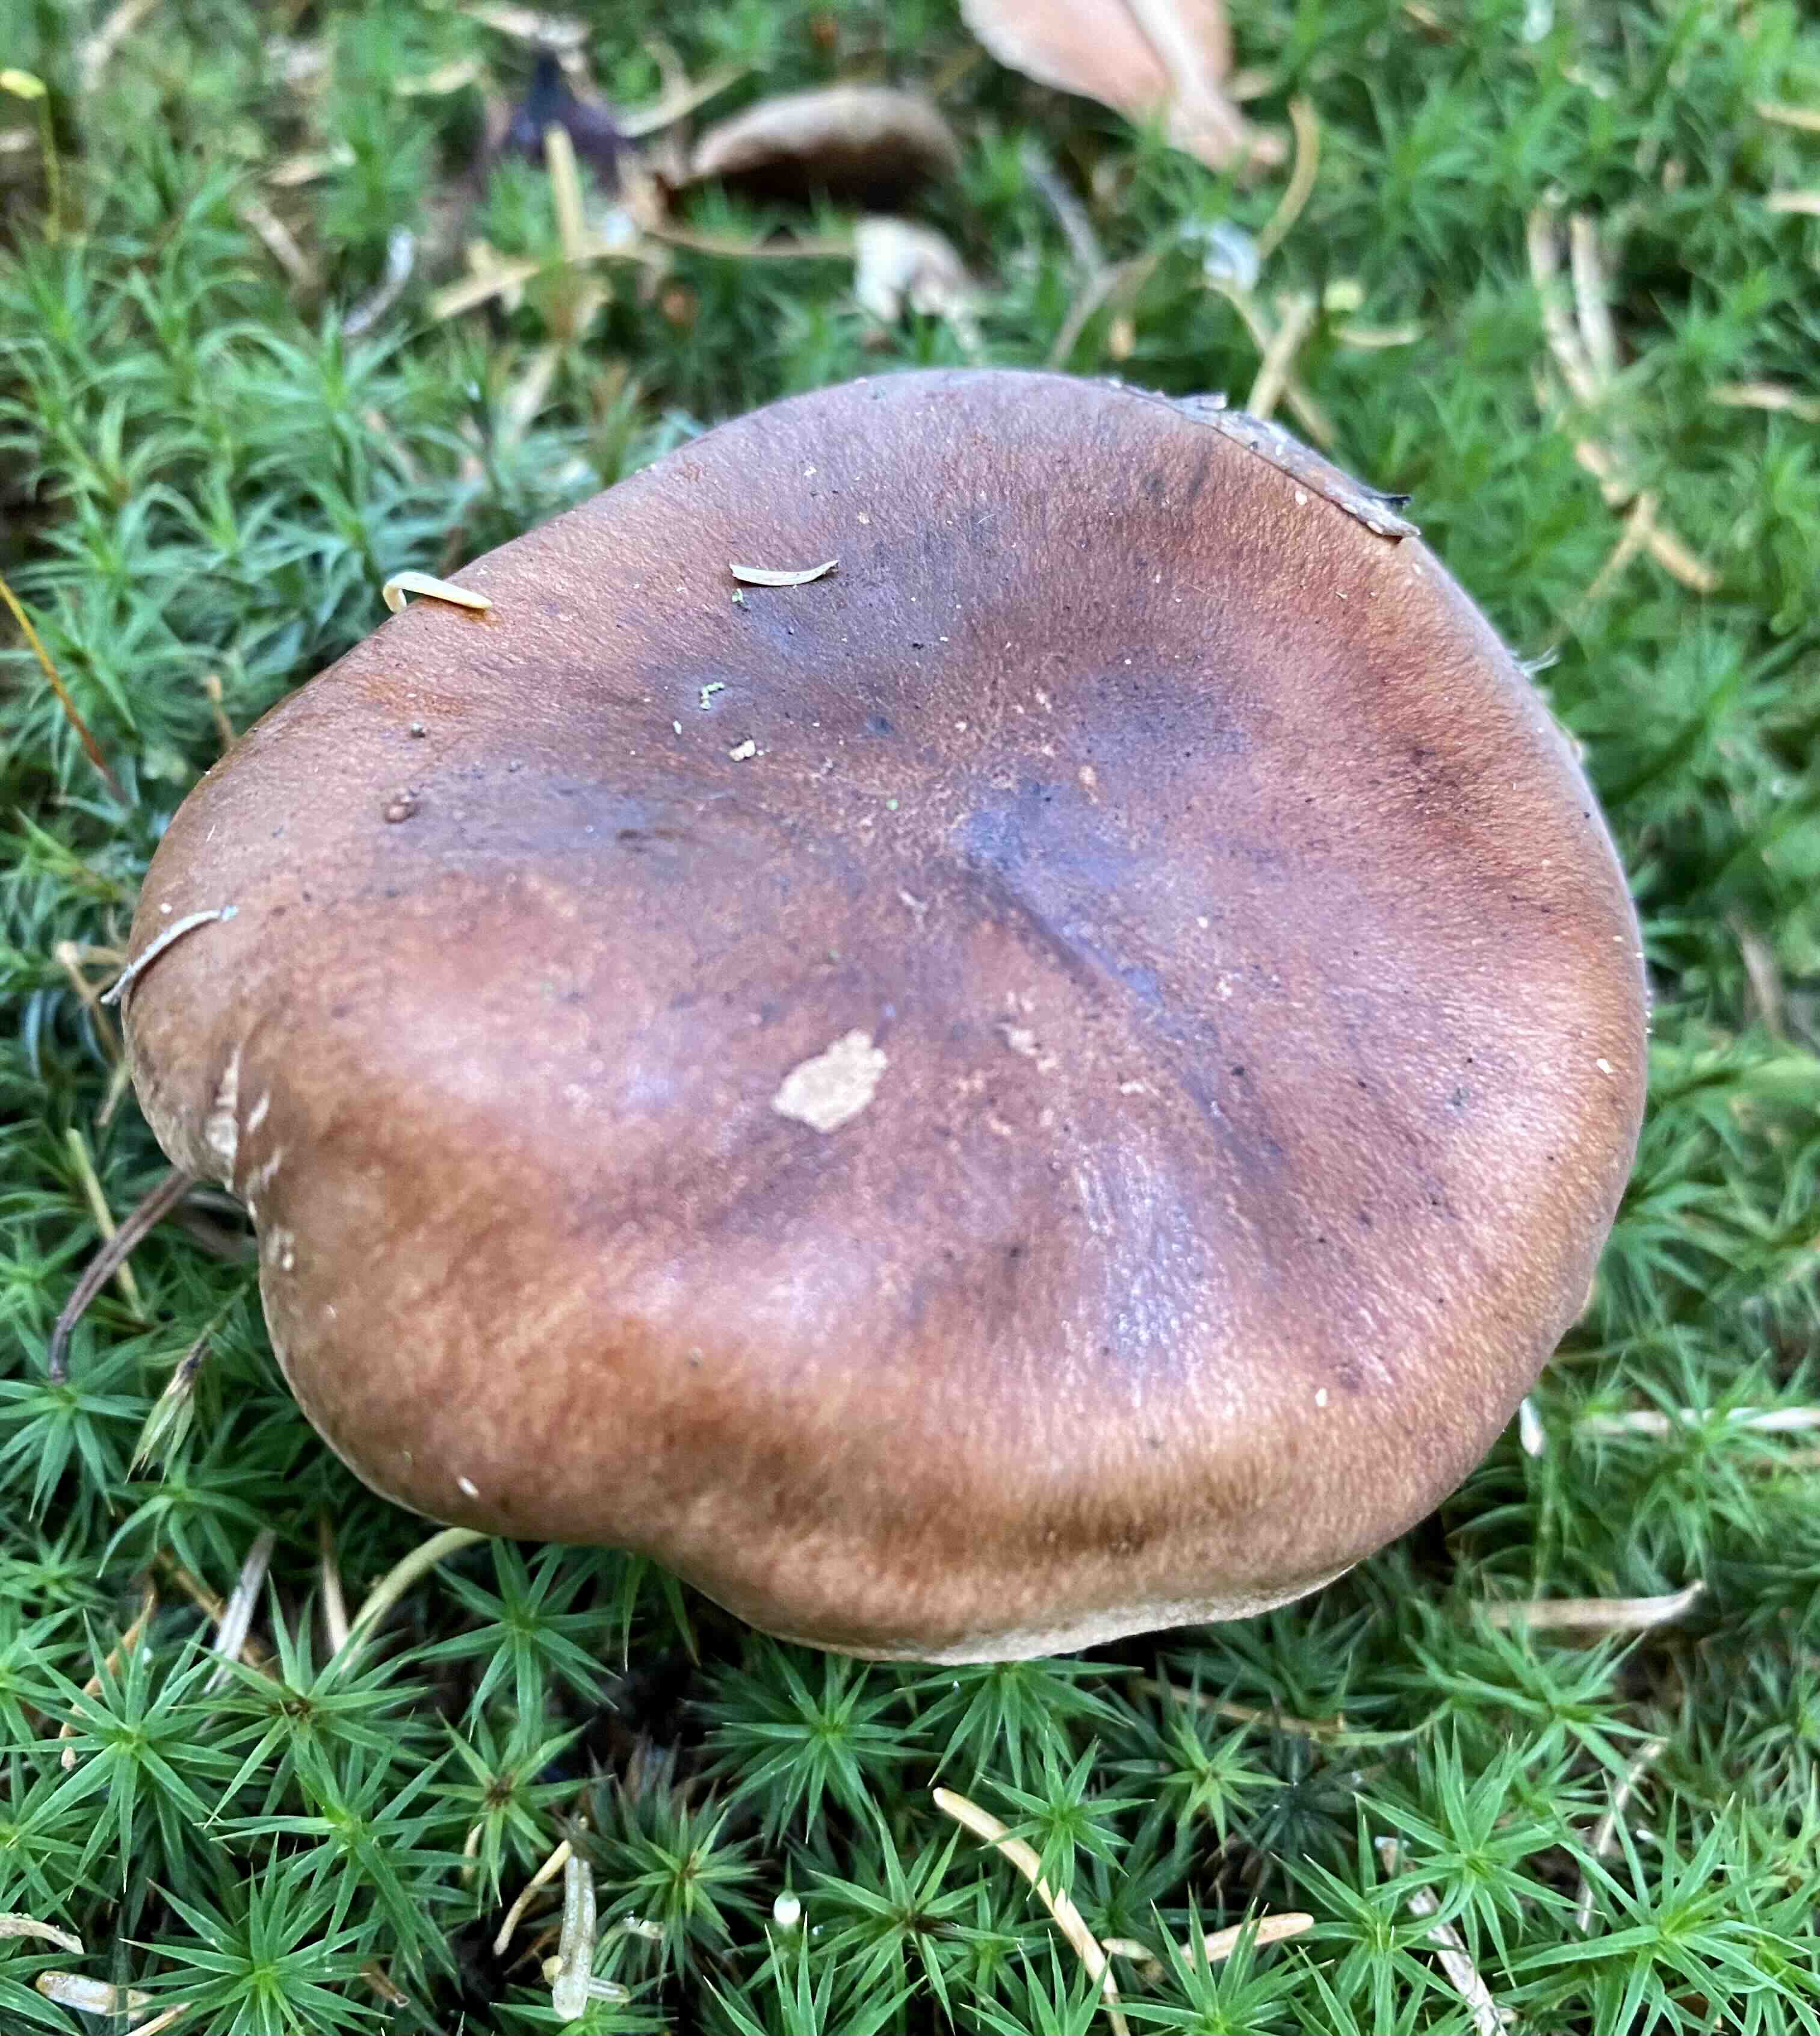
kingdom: Fungi
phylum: Basidiomycota
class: Agaricomycetes
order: Agaricales
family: Tricholomataceae
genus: Tricholoma
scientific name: Tricholoma fulvum
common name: birke-ridderhat
